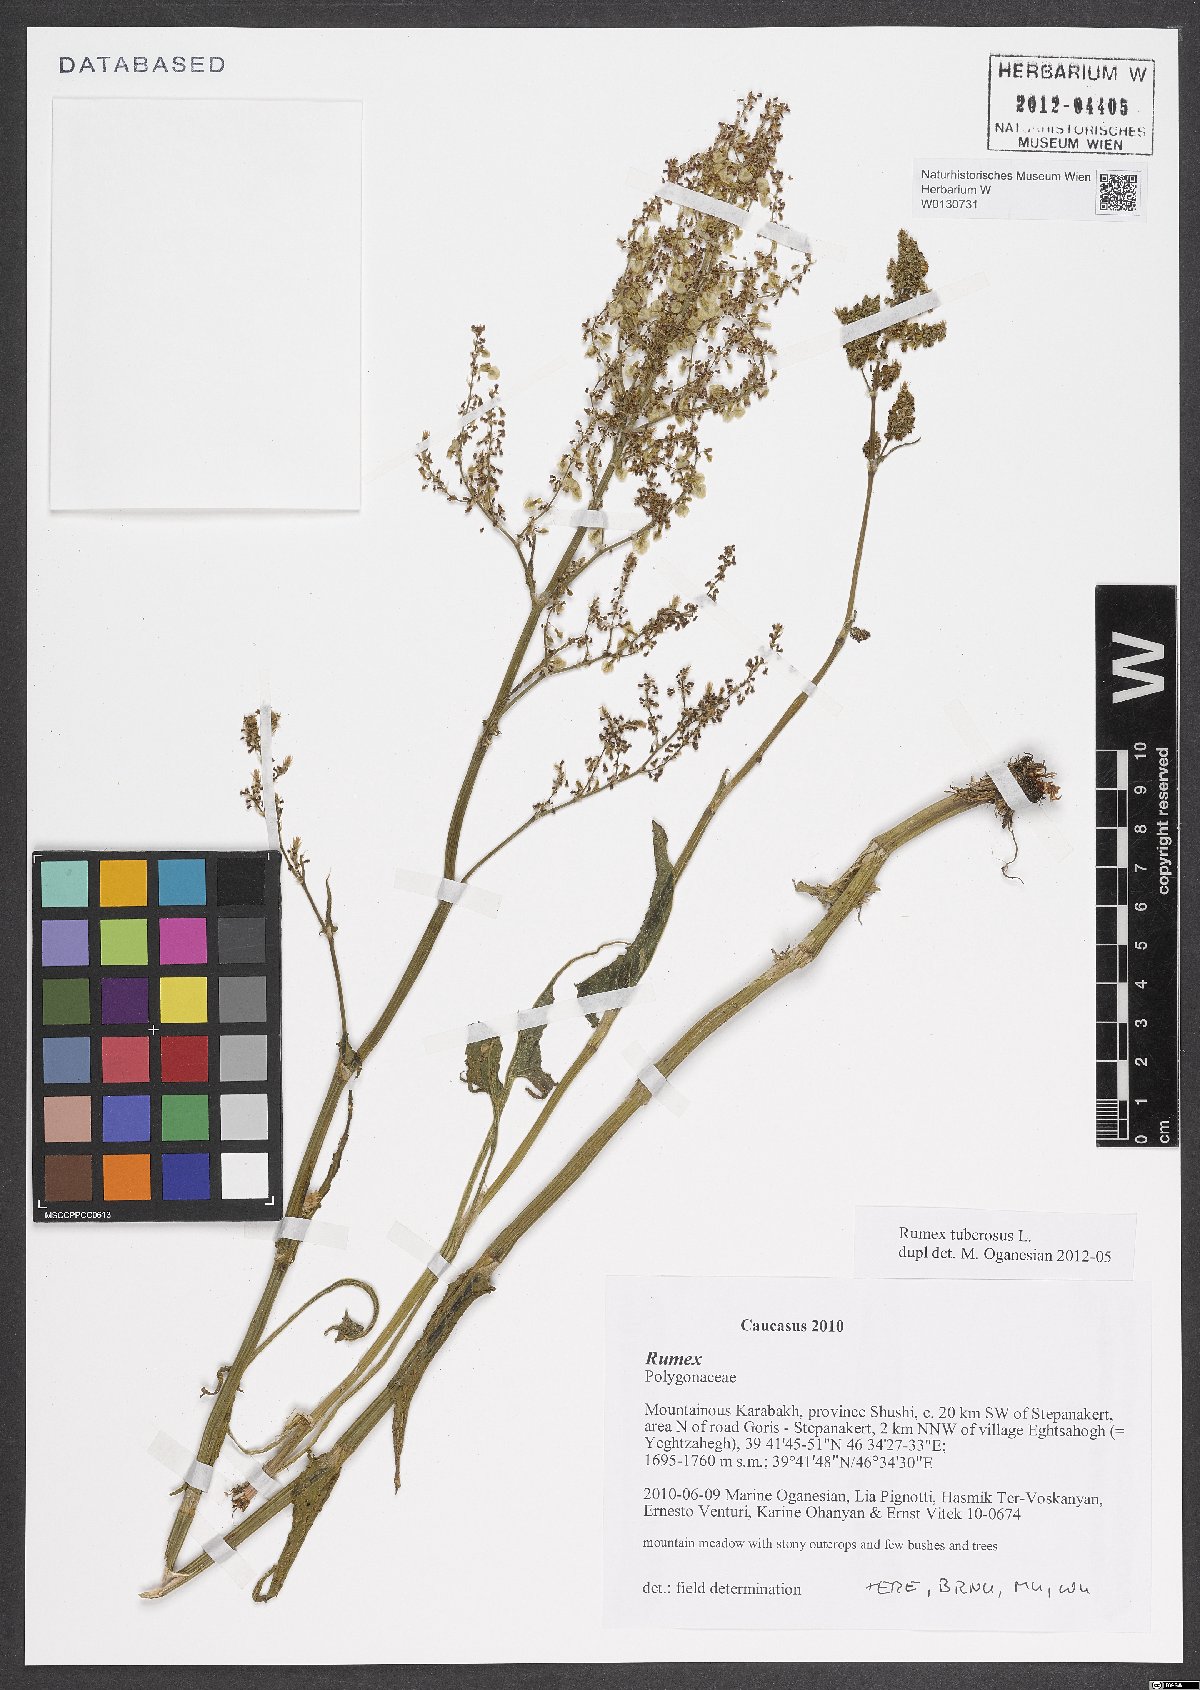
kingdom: Plantae
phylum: Tracheophyta
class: Magnoliopsida
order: Caryophyllales
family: Polygonaceae
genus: Rumex
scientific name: Rumex tuberosus
